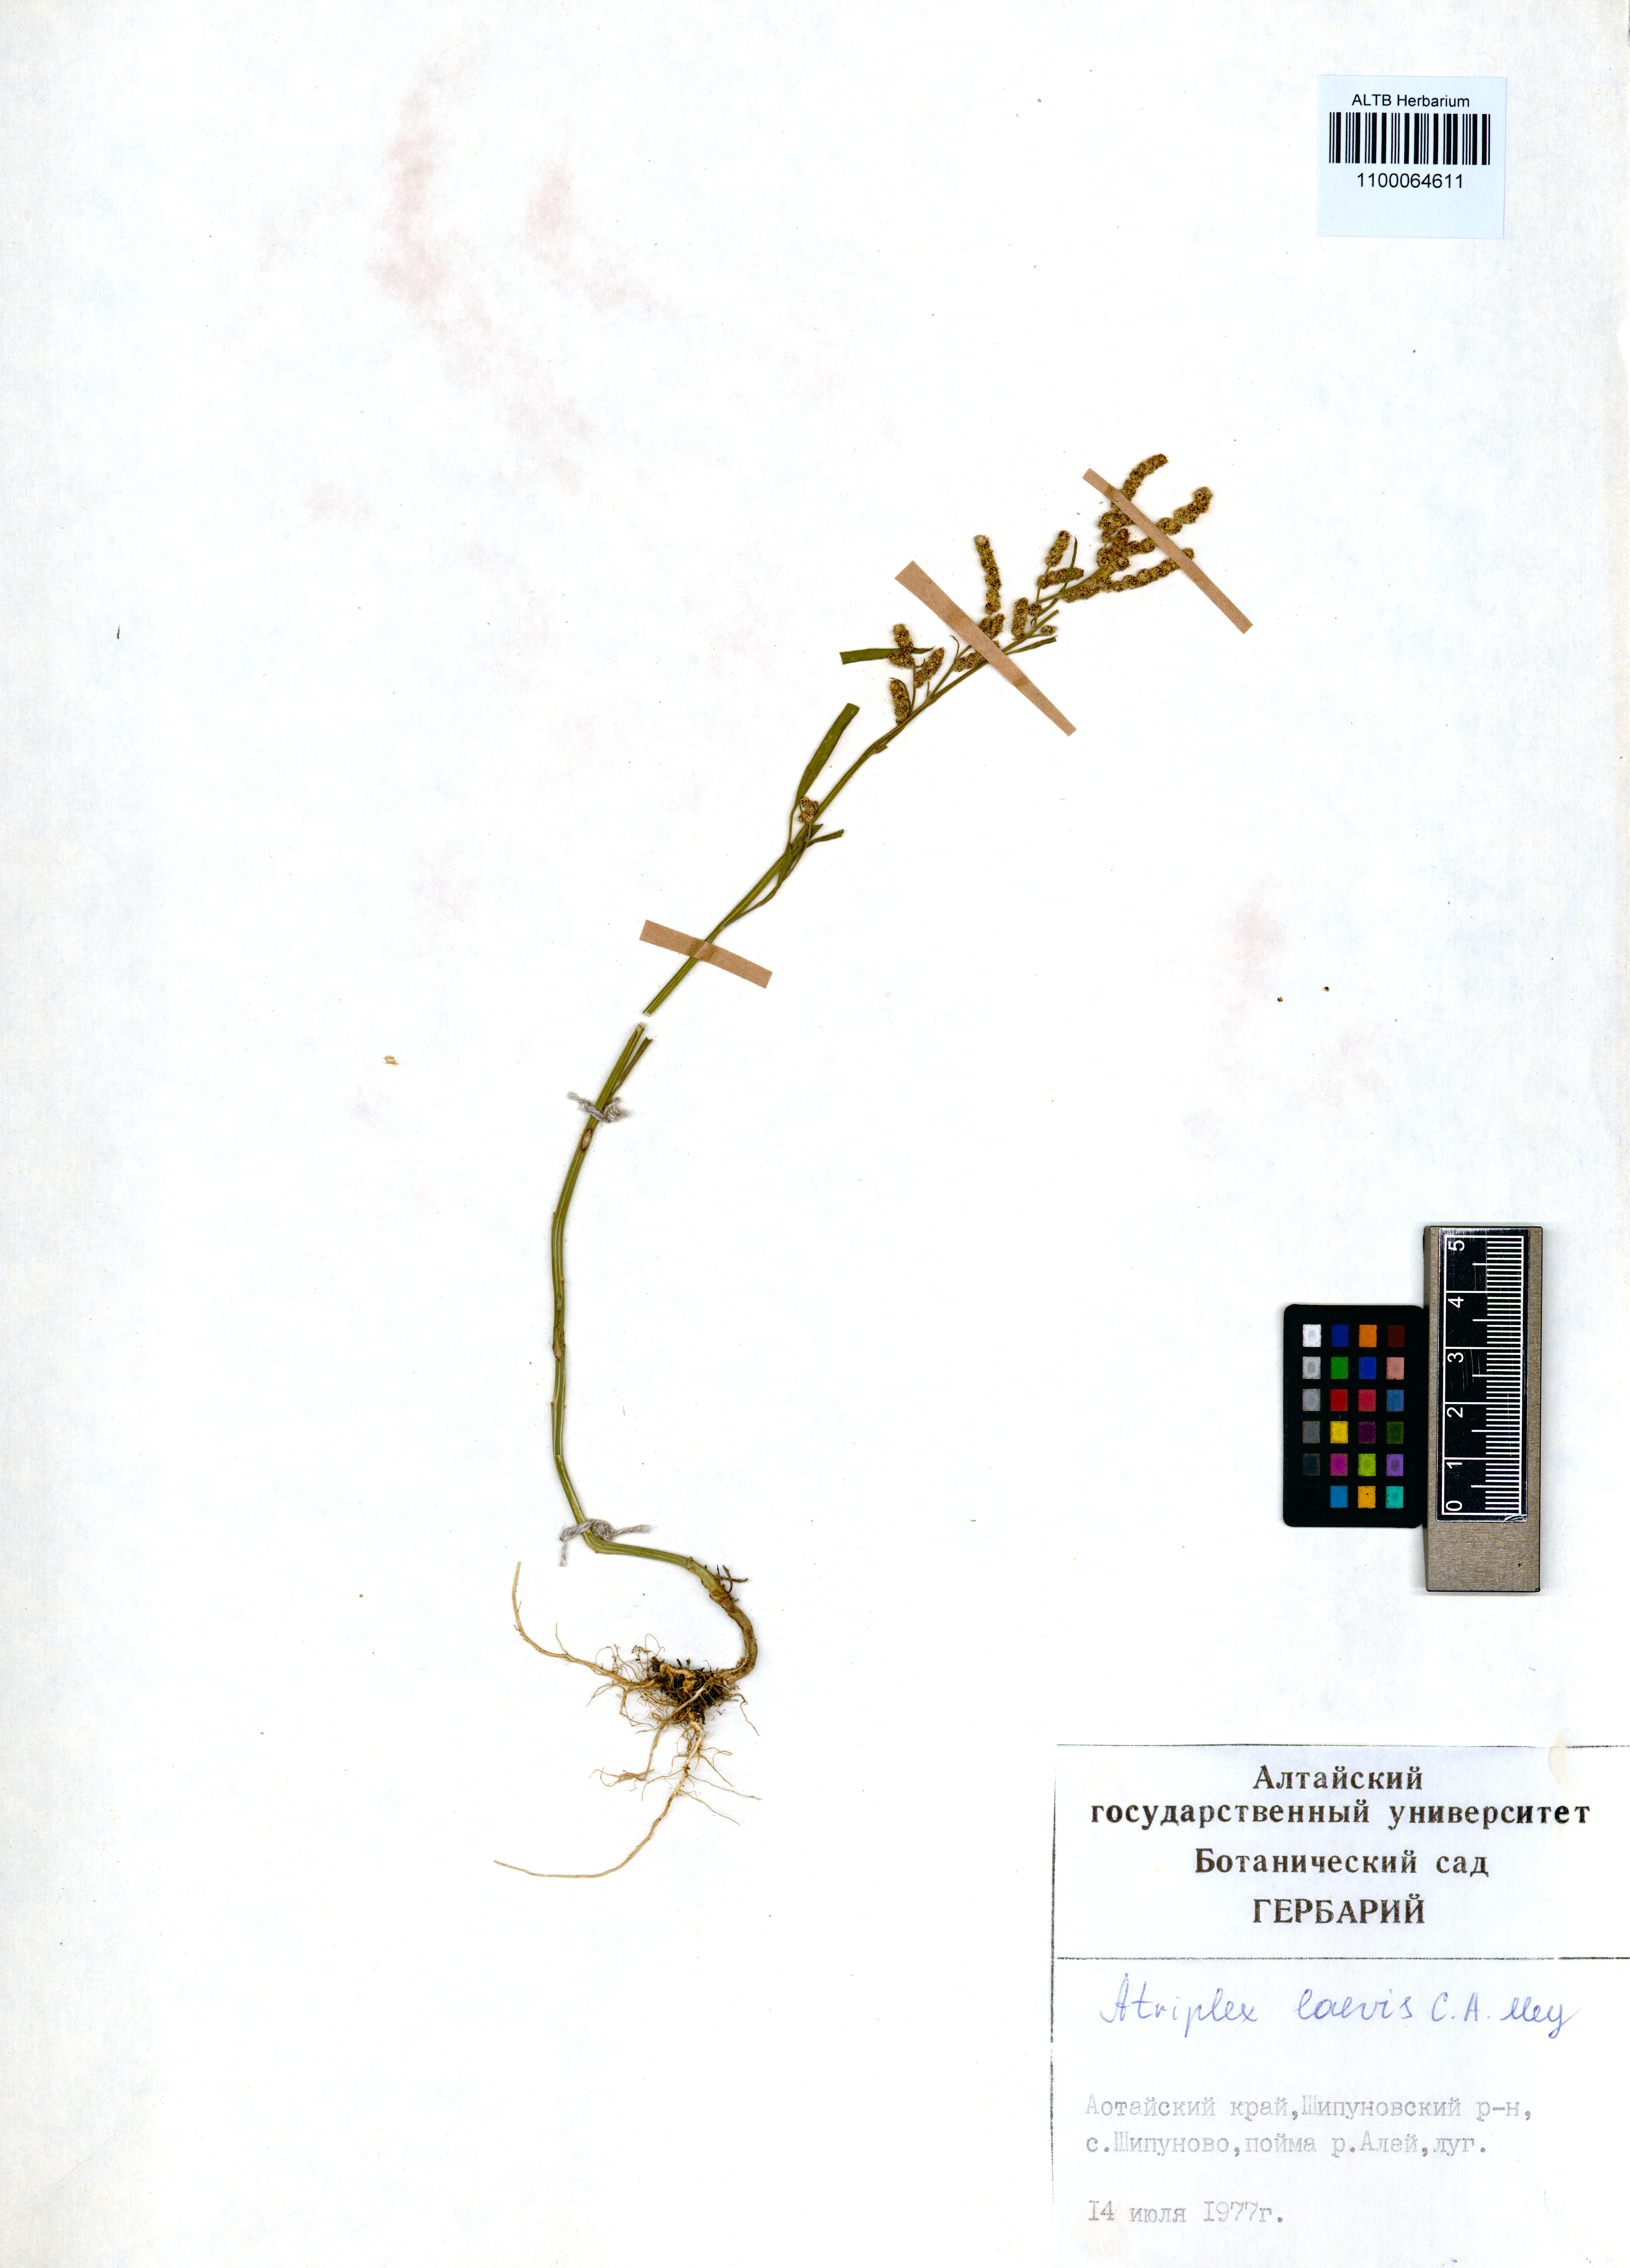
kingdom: Plantae
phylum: Tracheophyta
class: Magnoliopsida
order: Caryophyllales
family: Amaranthaceae
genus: Atriplex
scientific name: Atriplex laevis
